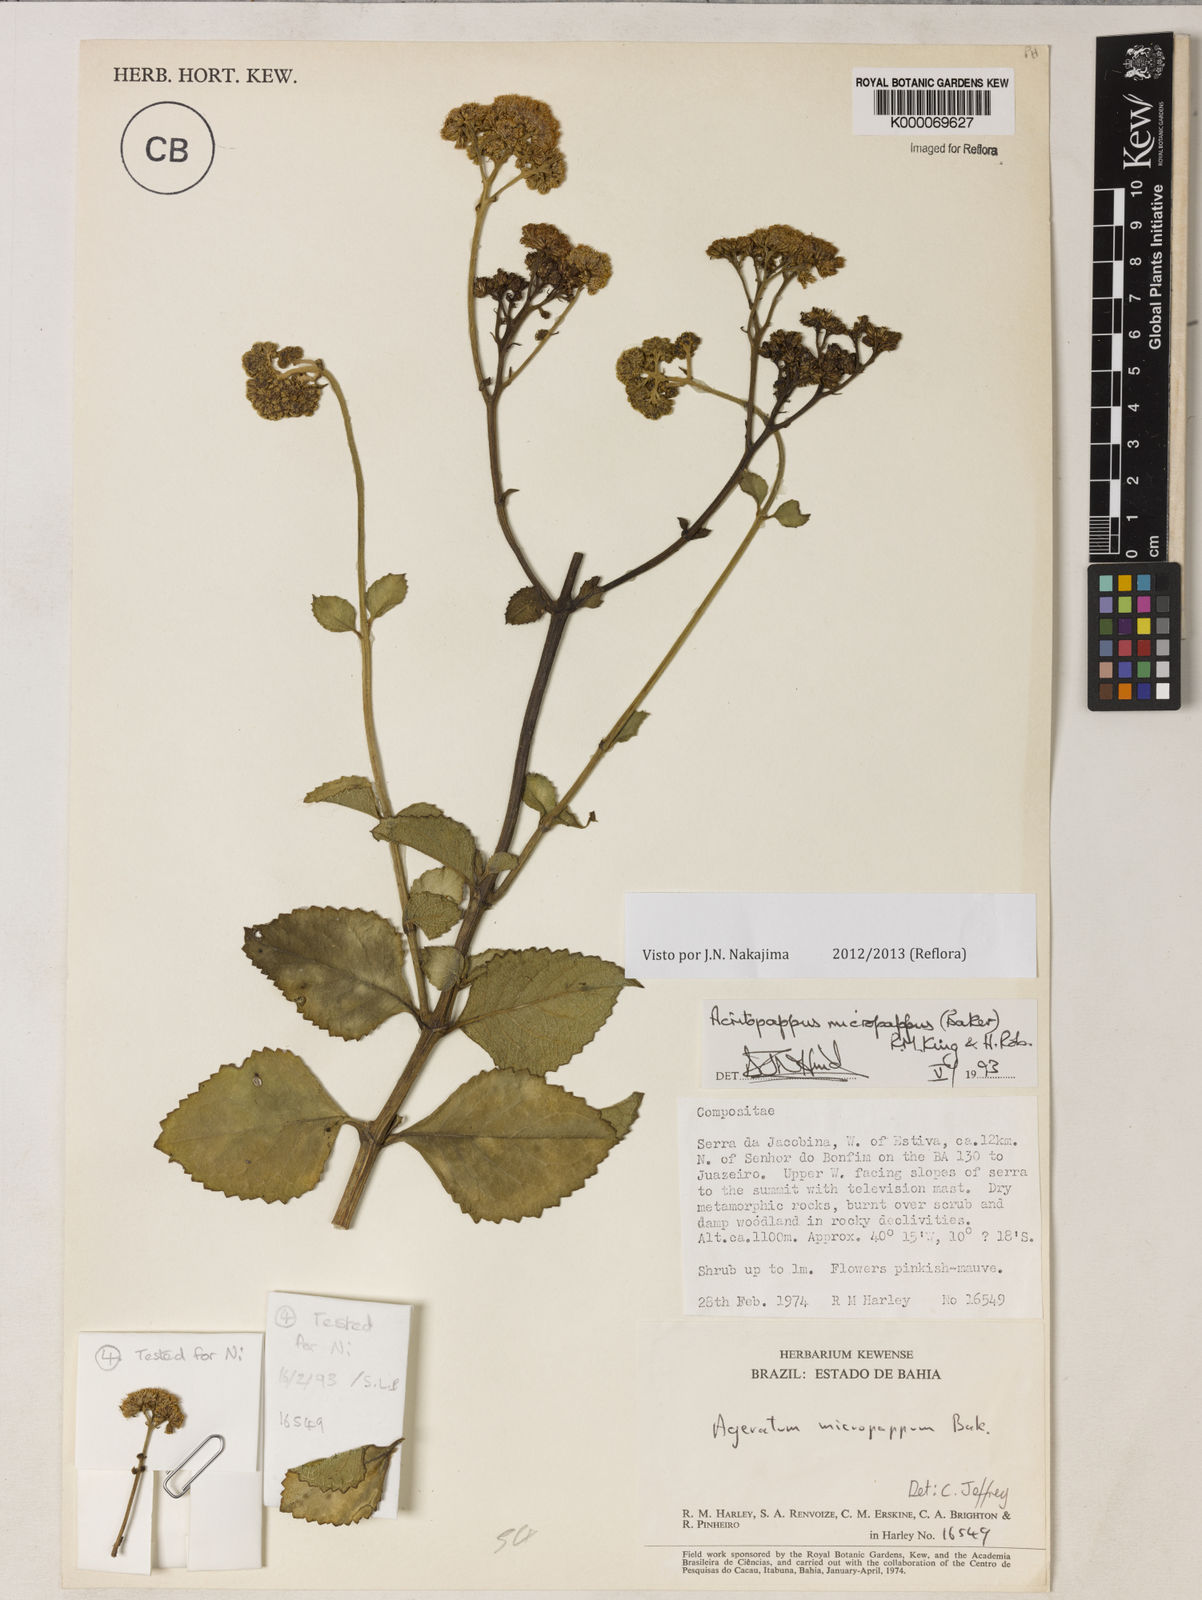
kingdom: Plantae
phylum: Tracheophyta
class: Magnoliopsida
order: Asterales
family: Asteraceae
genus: Acritopappus
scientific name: Acritopappus micropappus
